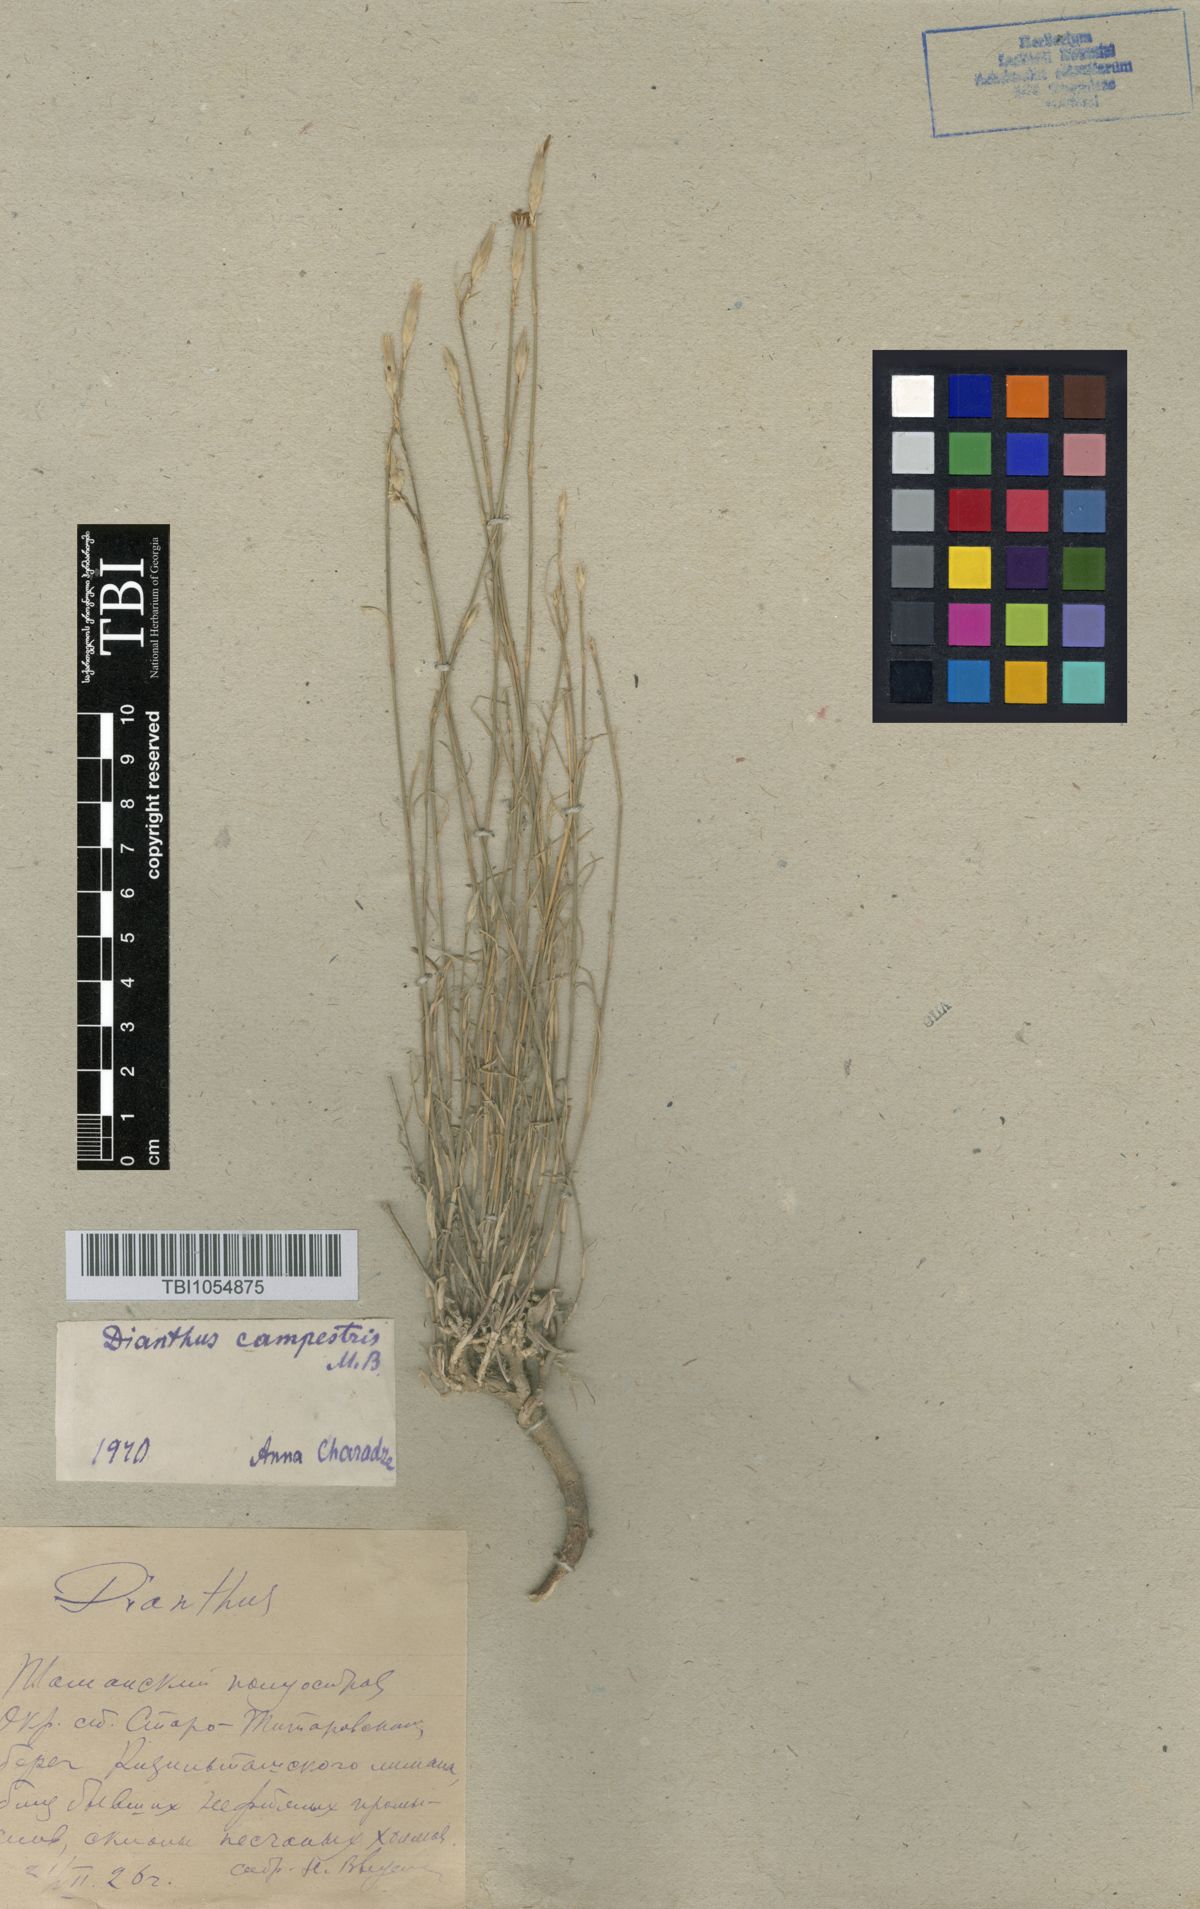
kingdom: Plantae
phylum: Tracheophyta
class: Magnoliopsida
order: Caryophyllales
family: Caryophyllaceae
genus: Dianthus
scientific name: Dianthus campestris
